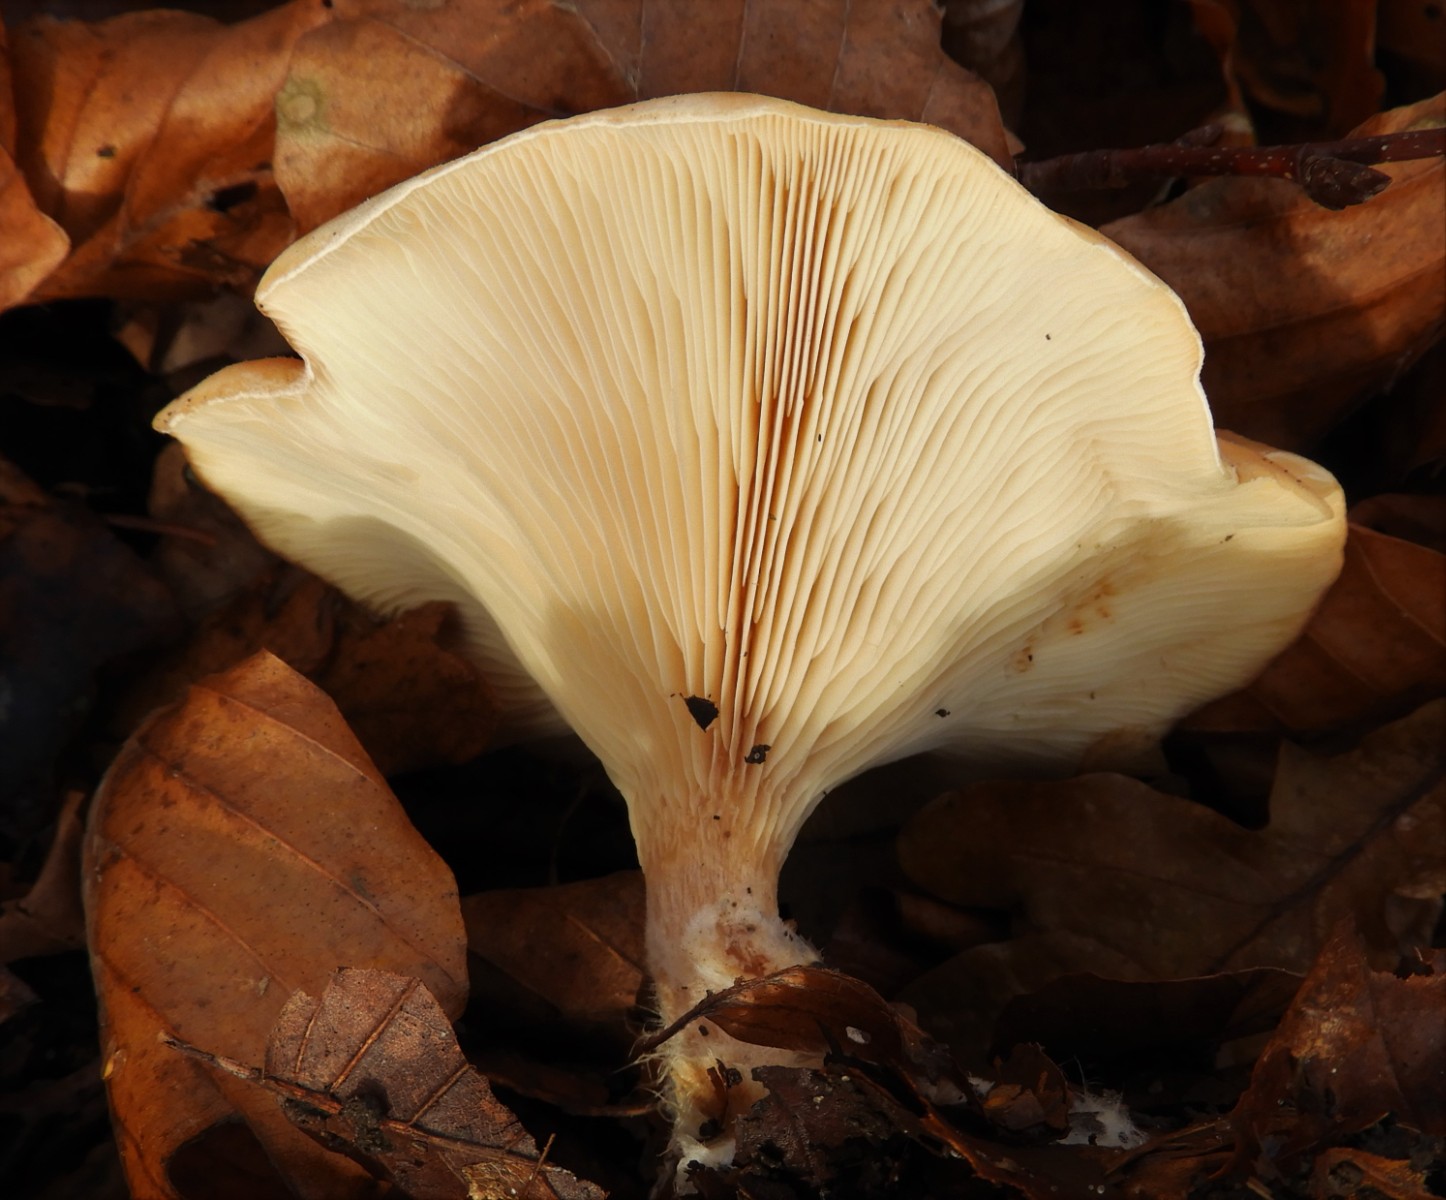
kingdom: Fungi
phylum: Basidiomycota
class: Agaricomycetes
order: Agaricales
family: Tricholomataceae
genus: Paralepista
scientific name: Paralepista flaccida
